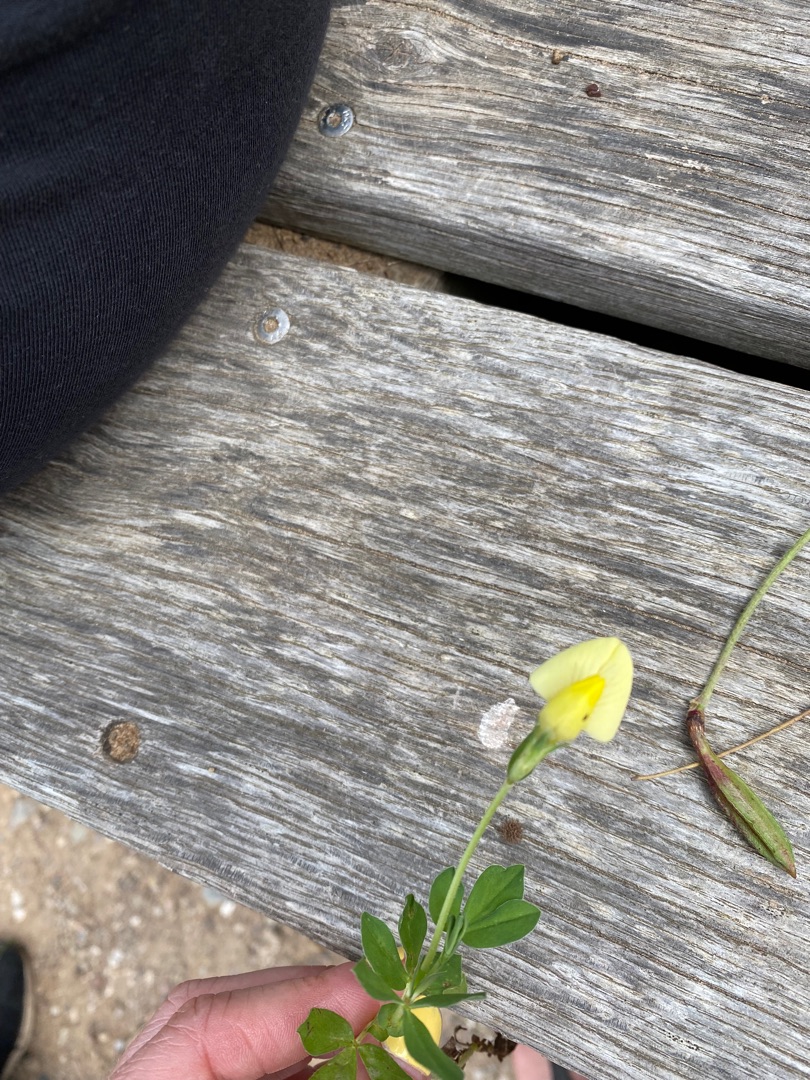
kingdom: Plantae
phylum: Tracheophyta
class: Magnoliopsida
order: Fabales
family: Fabaceae
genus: Lotus
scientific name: Lotus maritimus
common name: Kantbælg
